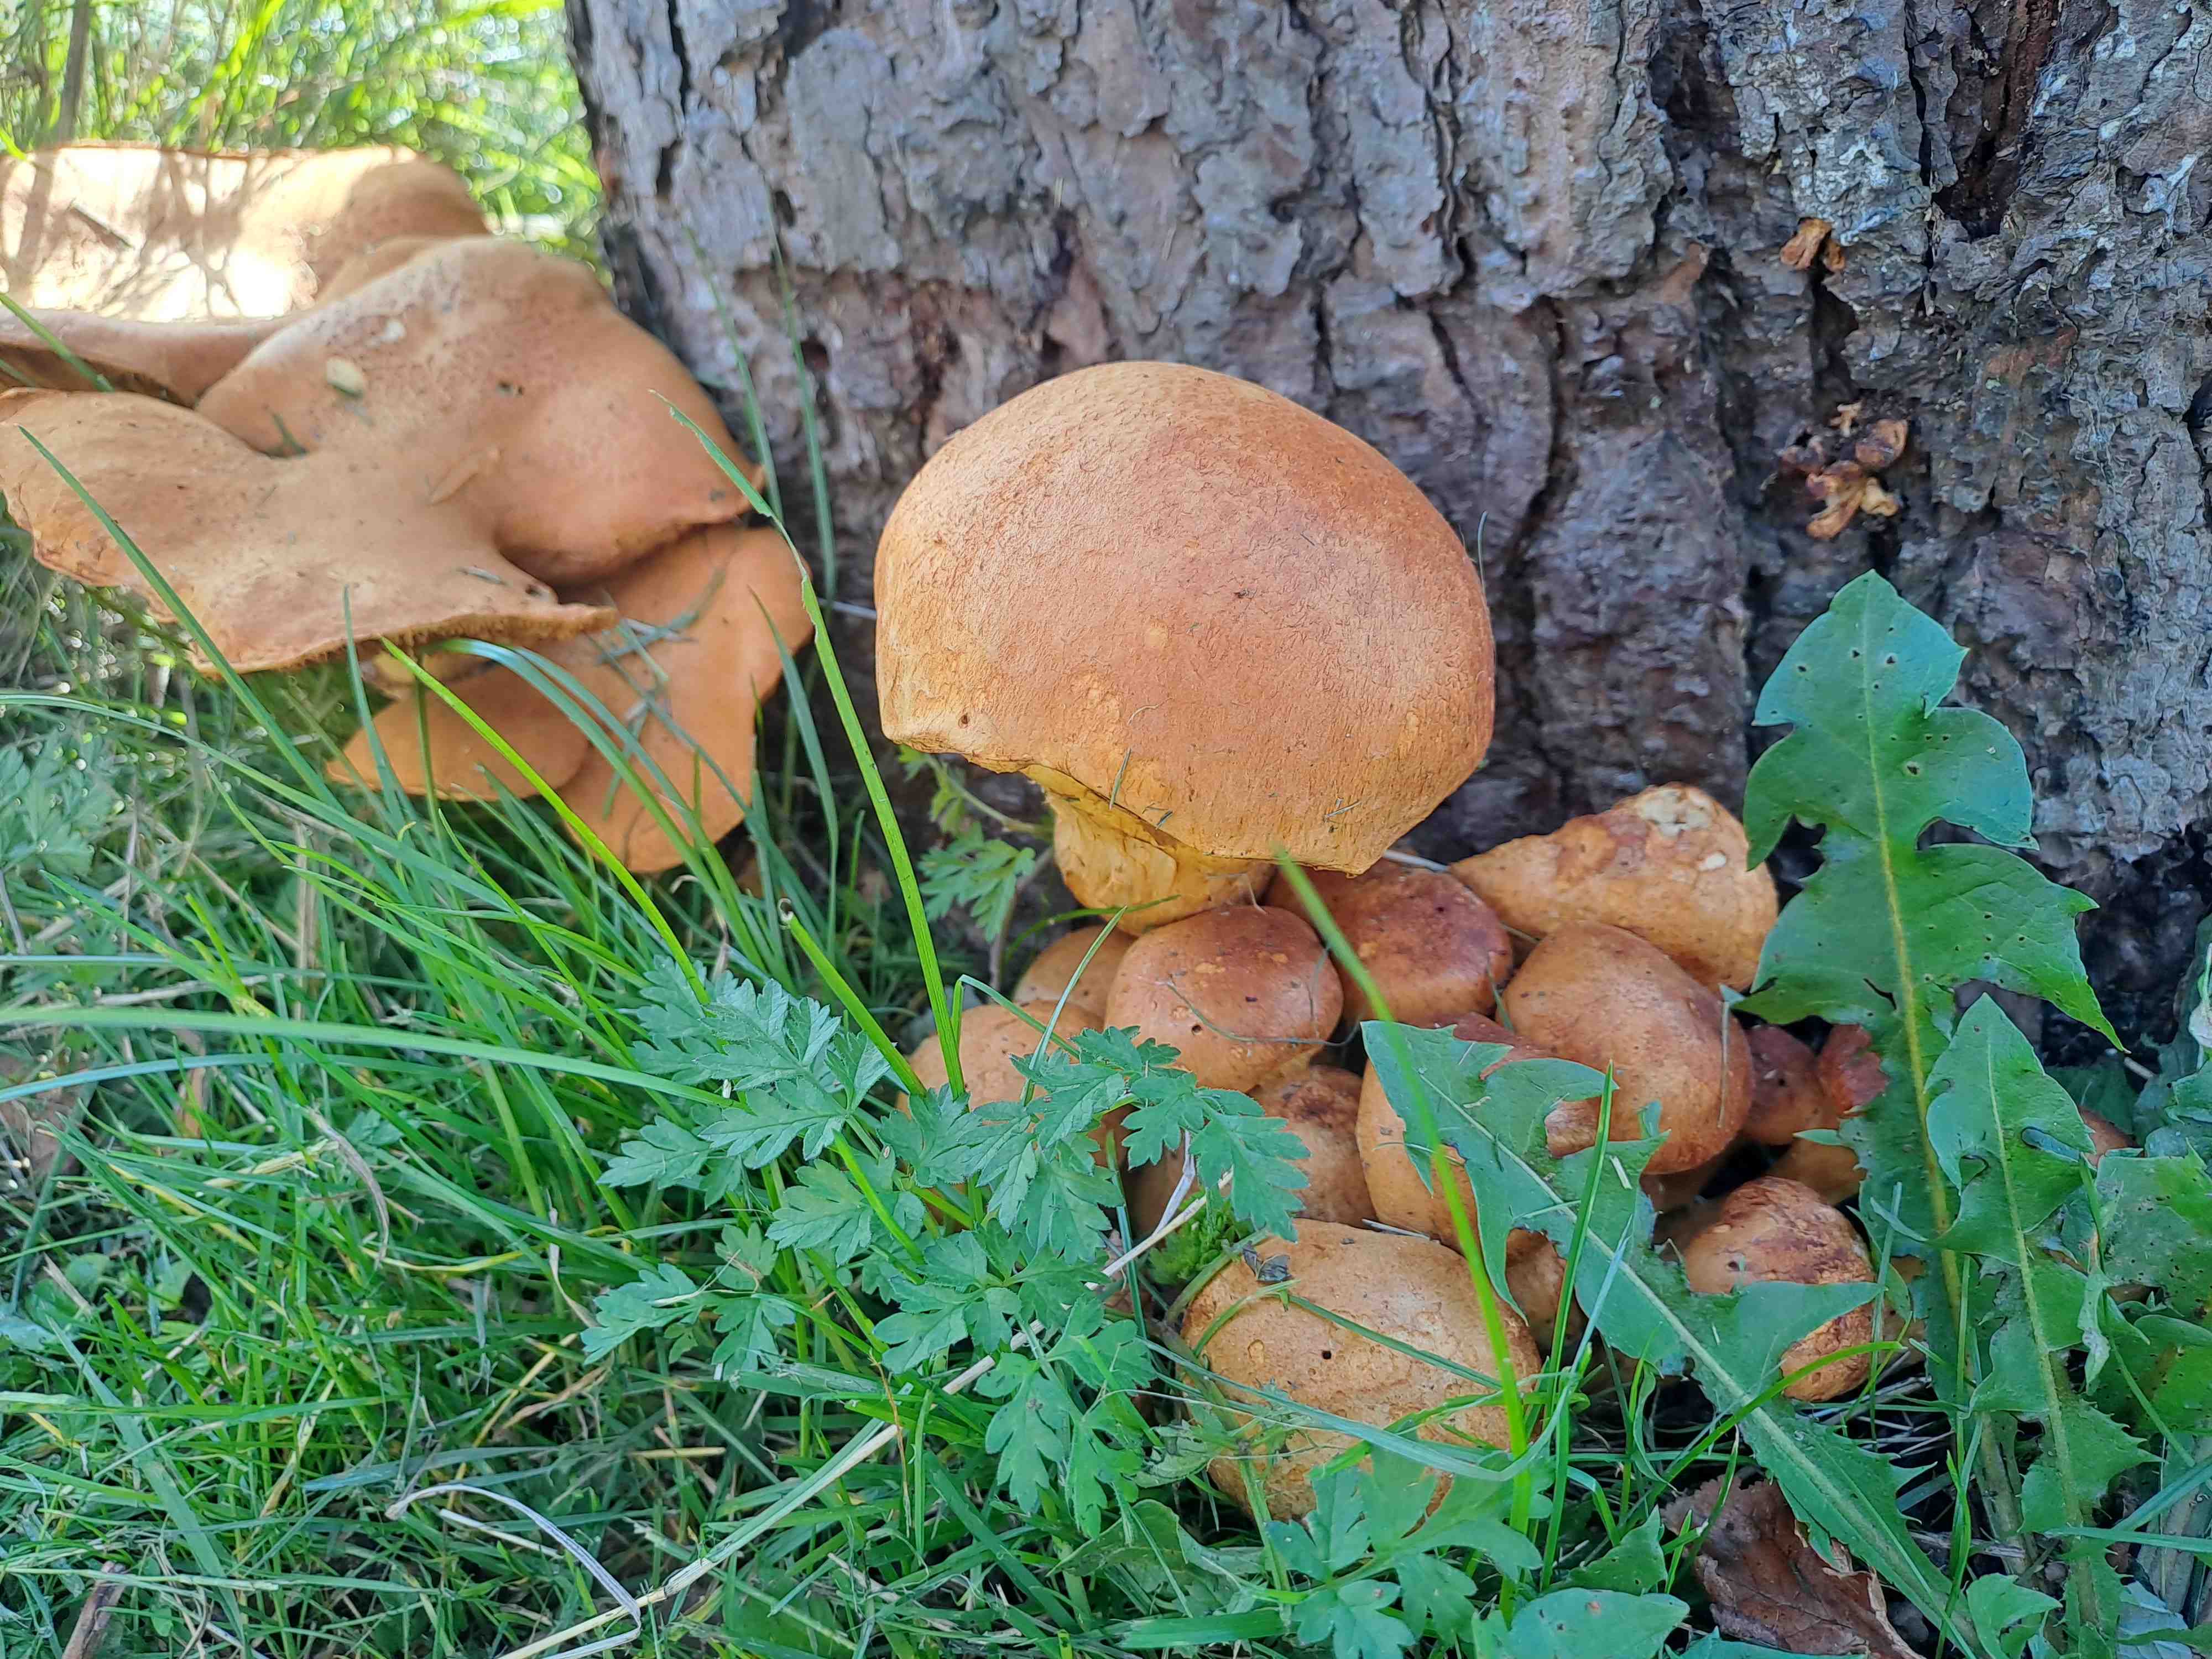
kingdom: Fungi
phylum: Basidiomycota
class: Agaricomycetes
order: Agaricales
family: Hymenogastraceae
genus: Gymnopilus
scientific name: Gymnopilus spectabilis
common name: fibret flammehat
